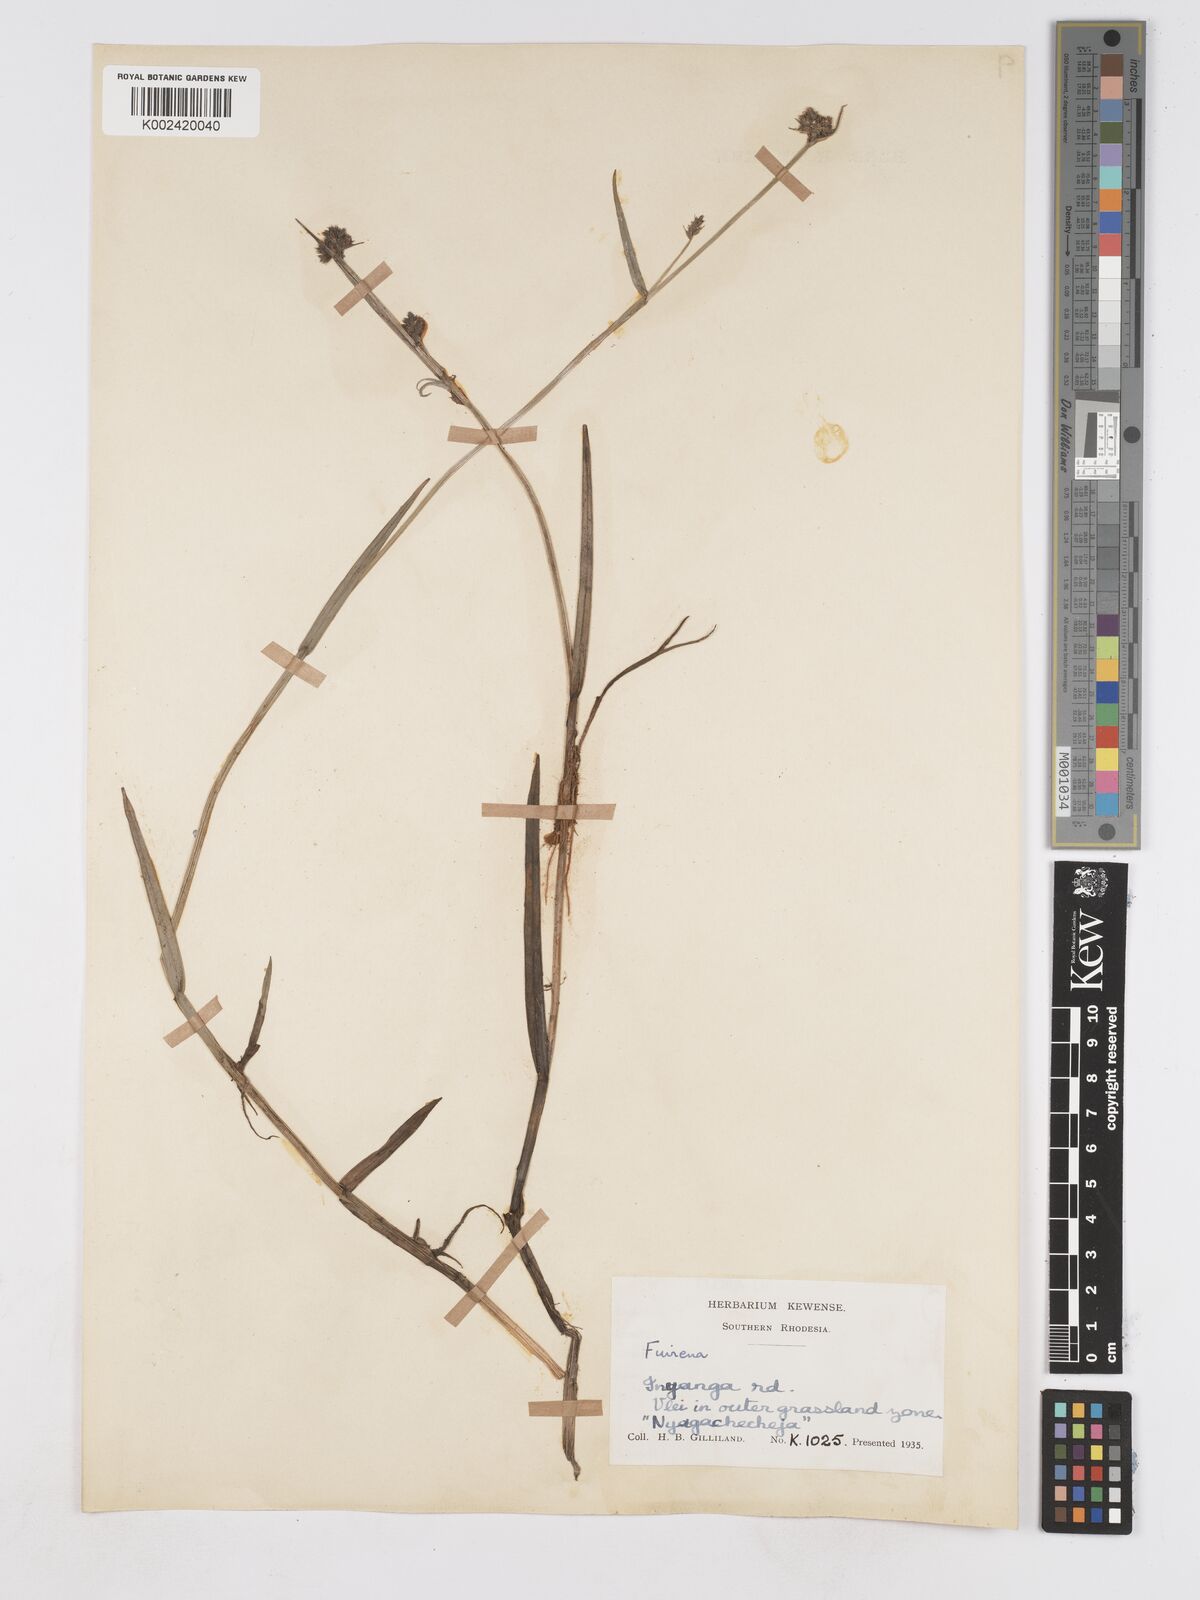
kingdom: Plantae
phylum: Tracheophyta
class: Liliopsida
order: Poales
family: Cyperaceae
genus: Fuirena
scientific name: Fuirena
